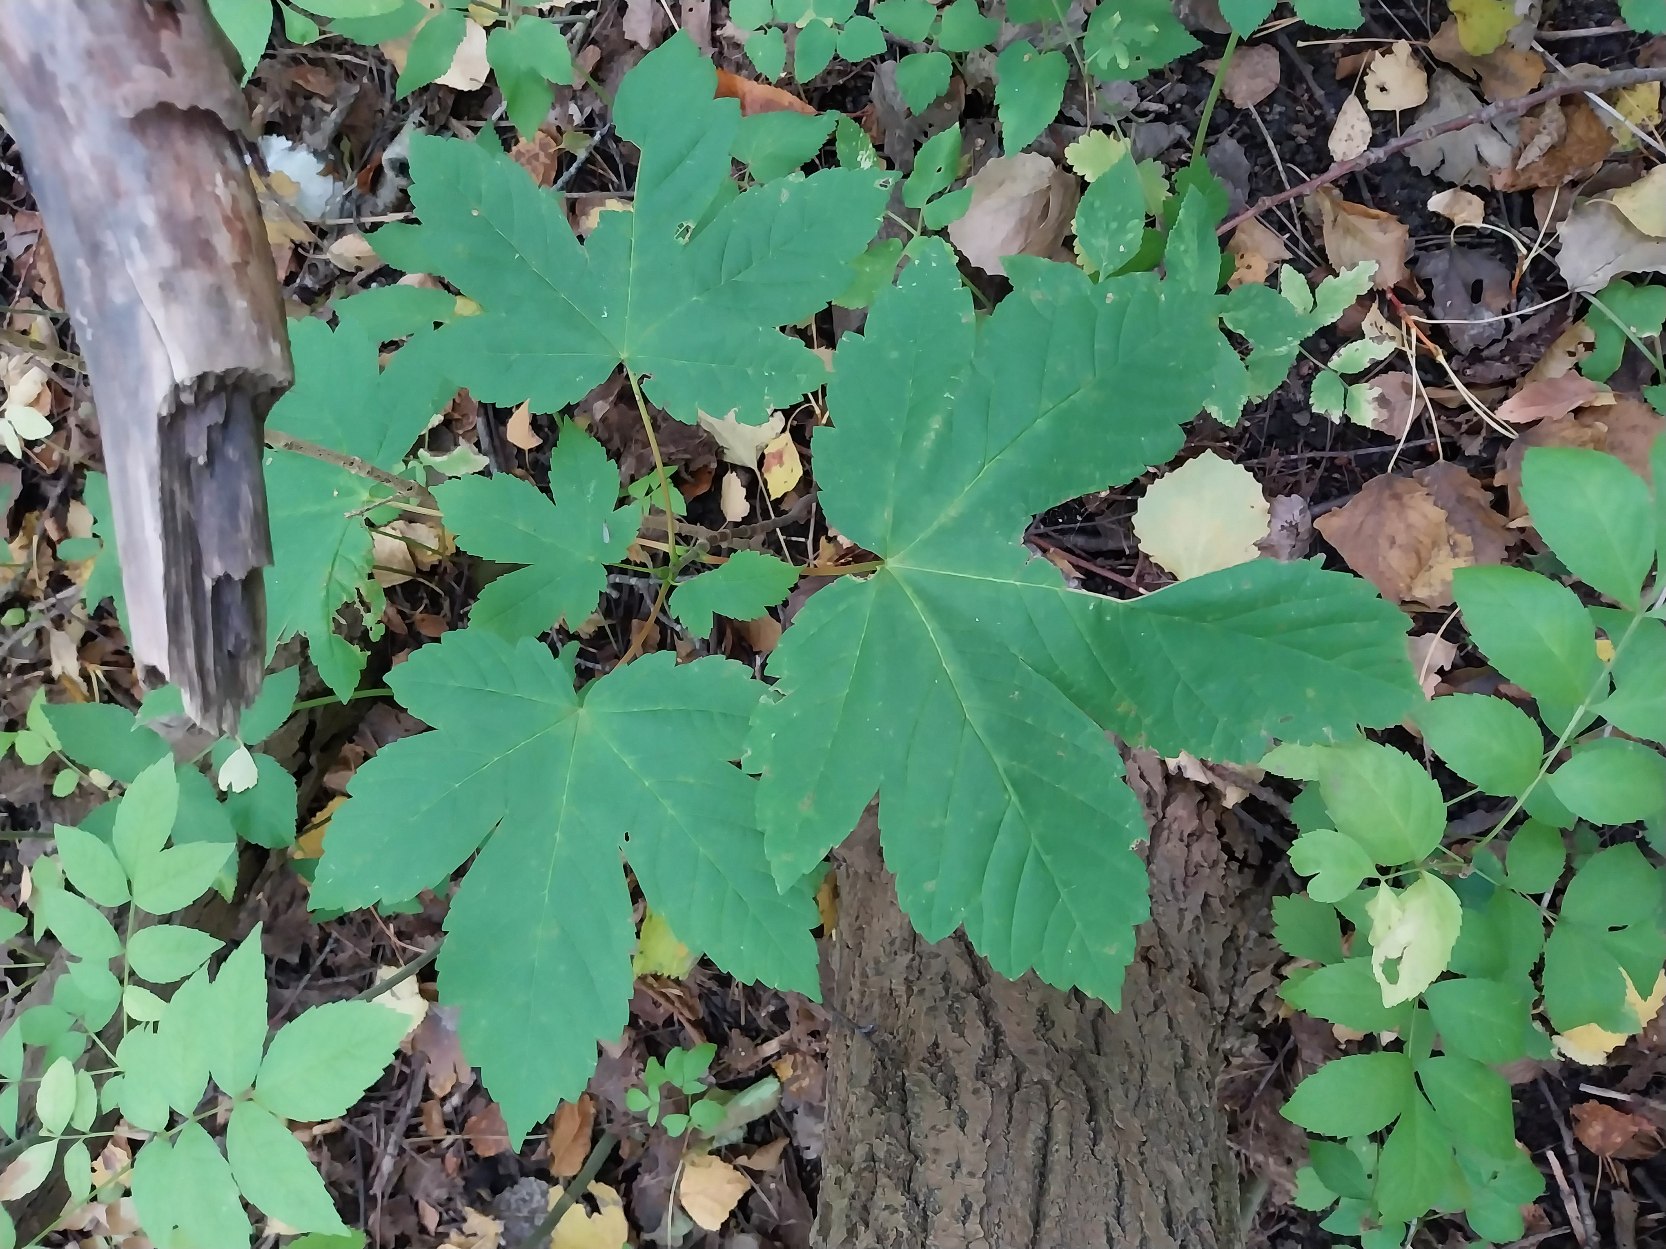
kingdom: Plantae
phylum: Tracheophyta
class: Magnoliopsida
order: Sapindales
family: Sapindaceae
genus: Acer
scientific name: Acer pseudoplatanus
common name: Ahorn
